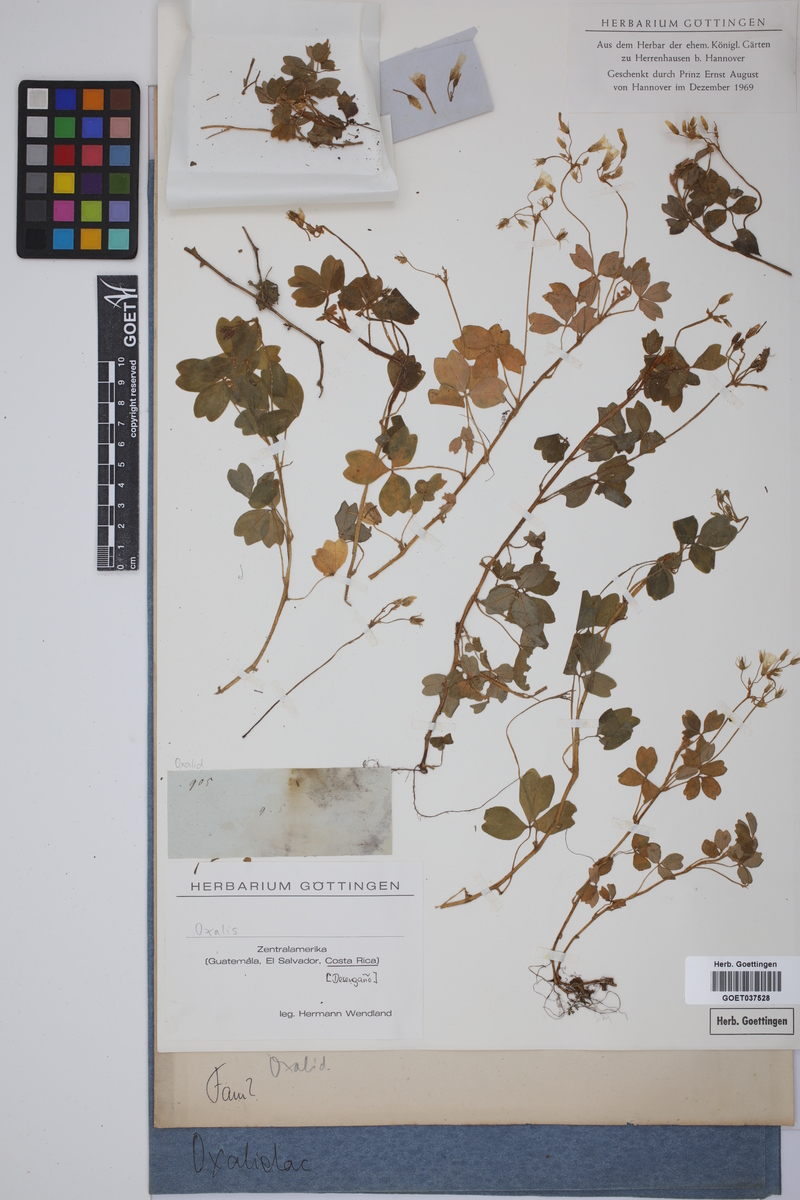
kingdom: Plantae
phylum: Tracheophyta
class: Magnoliopsida
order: Oxalidales
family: Oxalidaceae
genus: Oxalis
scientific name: Oxalis
